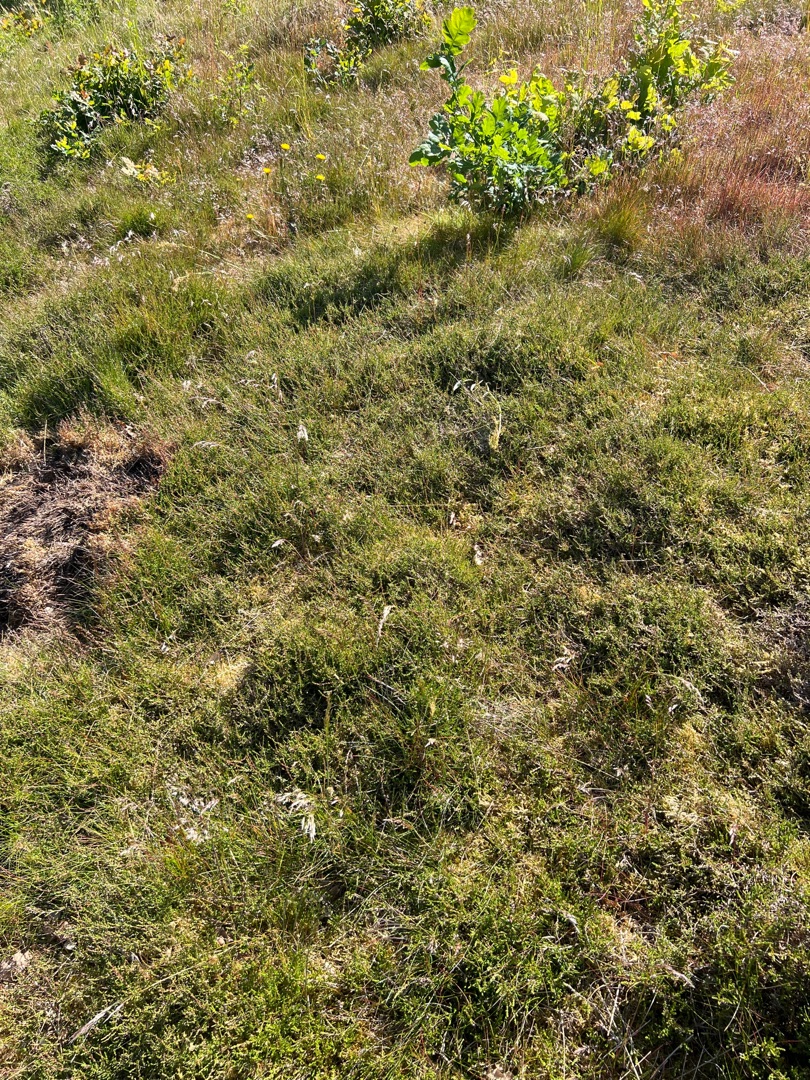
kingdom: Plantae
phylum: Tracheophyta
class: Magnoliopsida
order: Ericales
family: Ericaceae
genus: Calluna
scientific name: Calluna vulgaris
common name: Hedelyng
